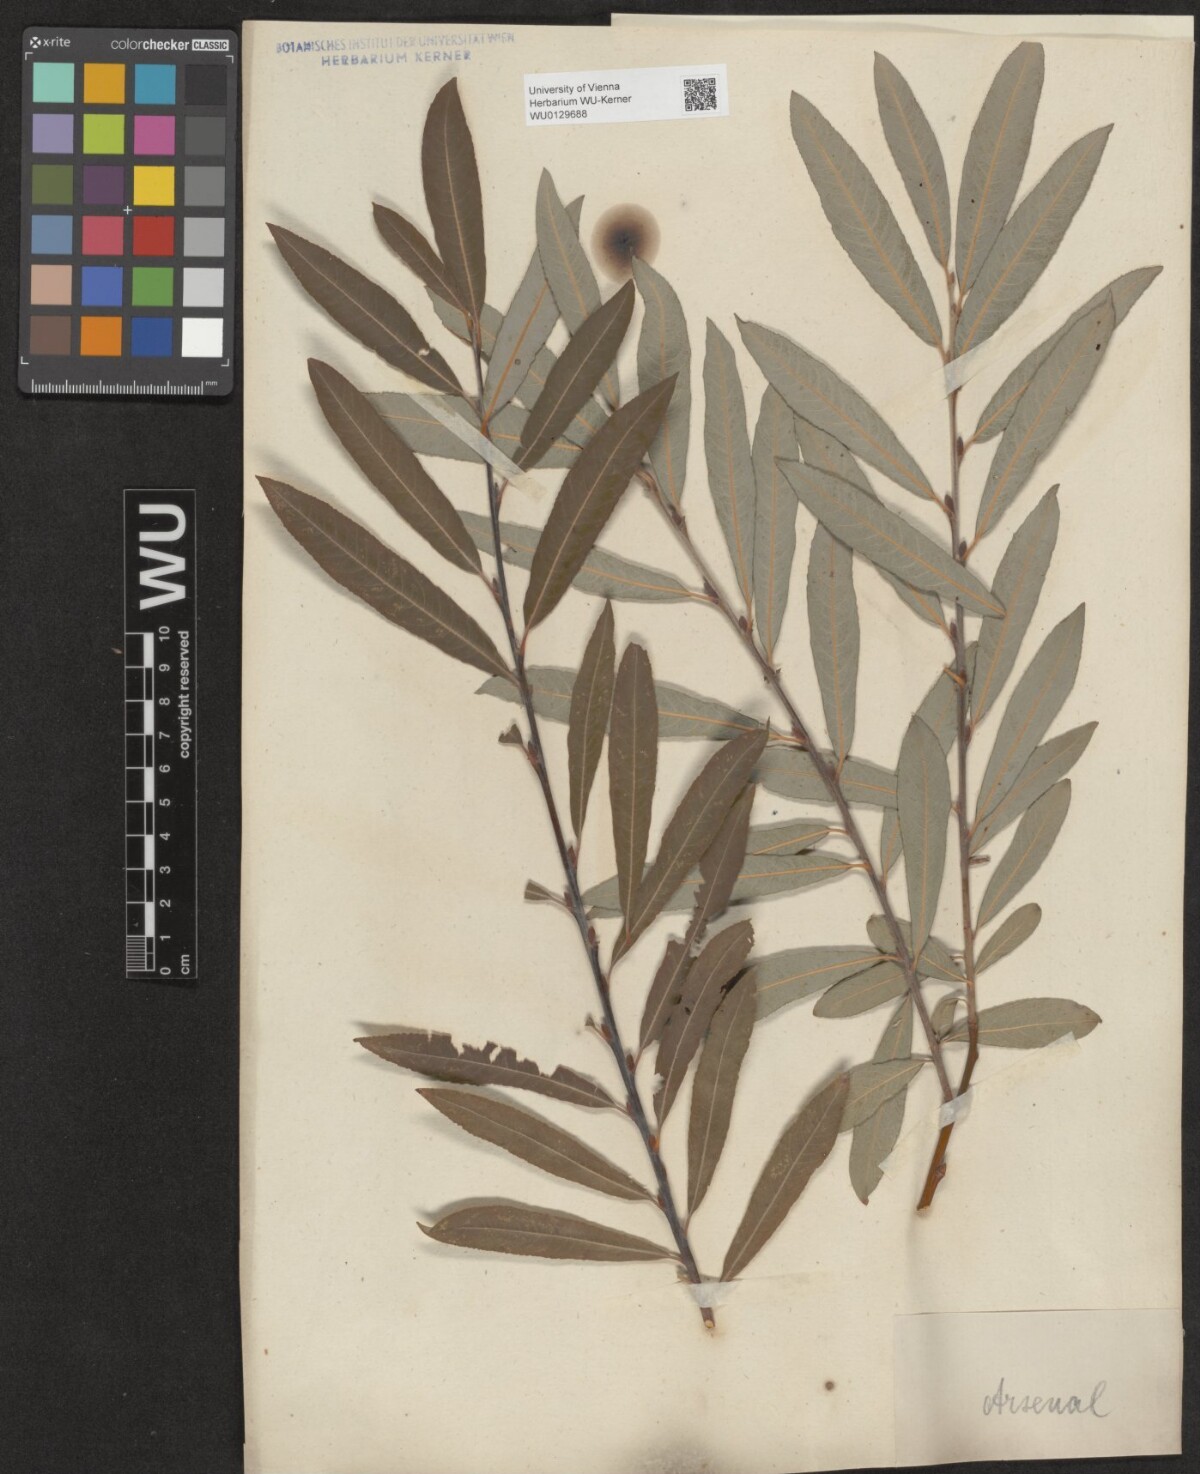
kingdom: Plantae
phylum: Tracheophyta
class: Magnoliopsida
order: Malpighiales
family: Salicaceae
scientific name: Salicaceae
